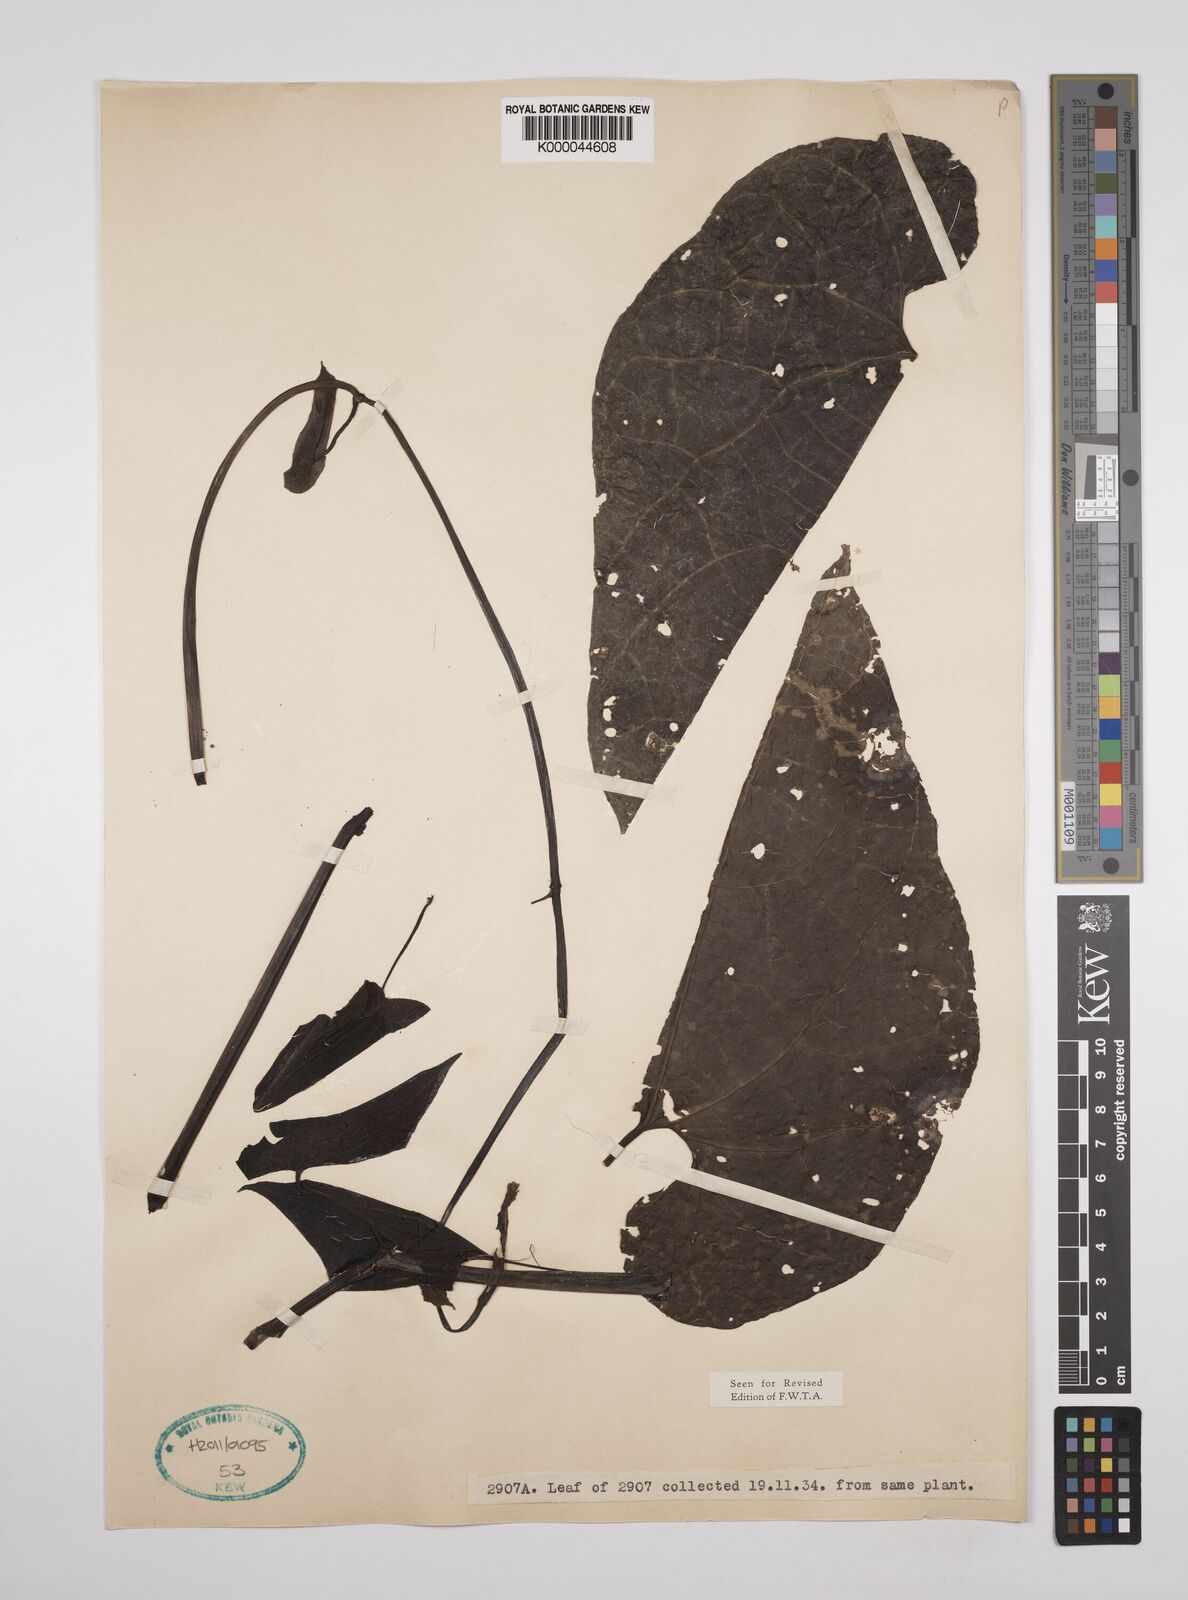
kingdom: Plantae
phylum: Tracheophyta
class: Magnoliopsida
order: Piperales
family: Aristolochiaceae
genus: Aristolochia
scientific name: Aristolochia goldieana
